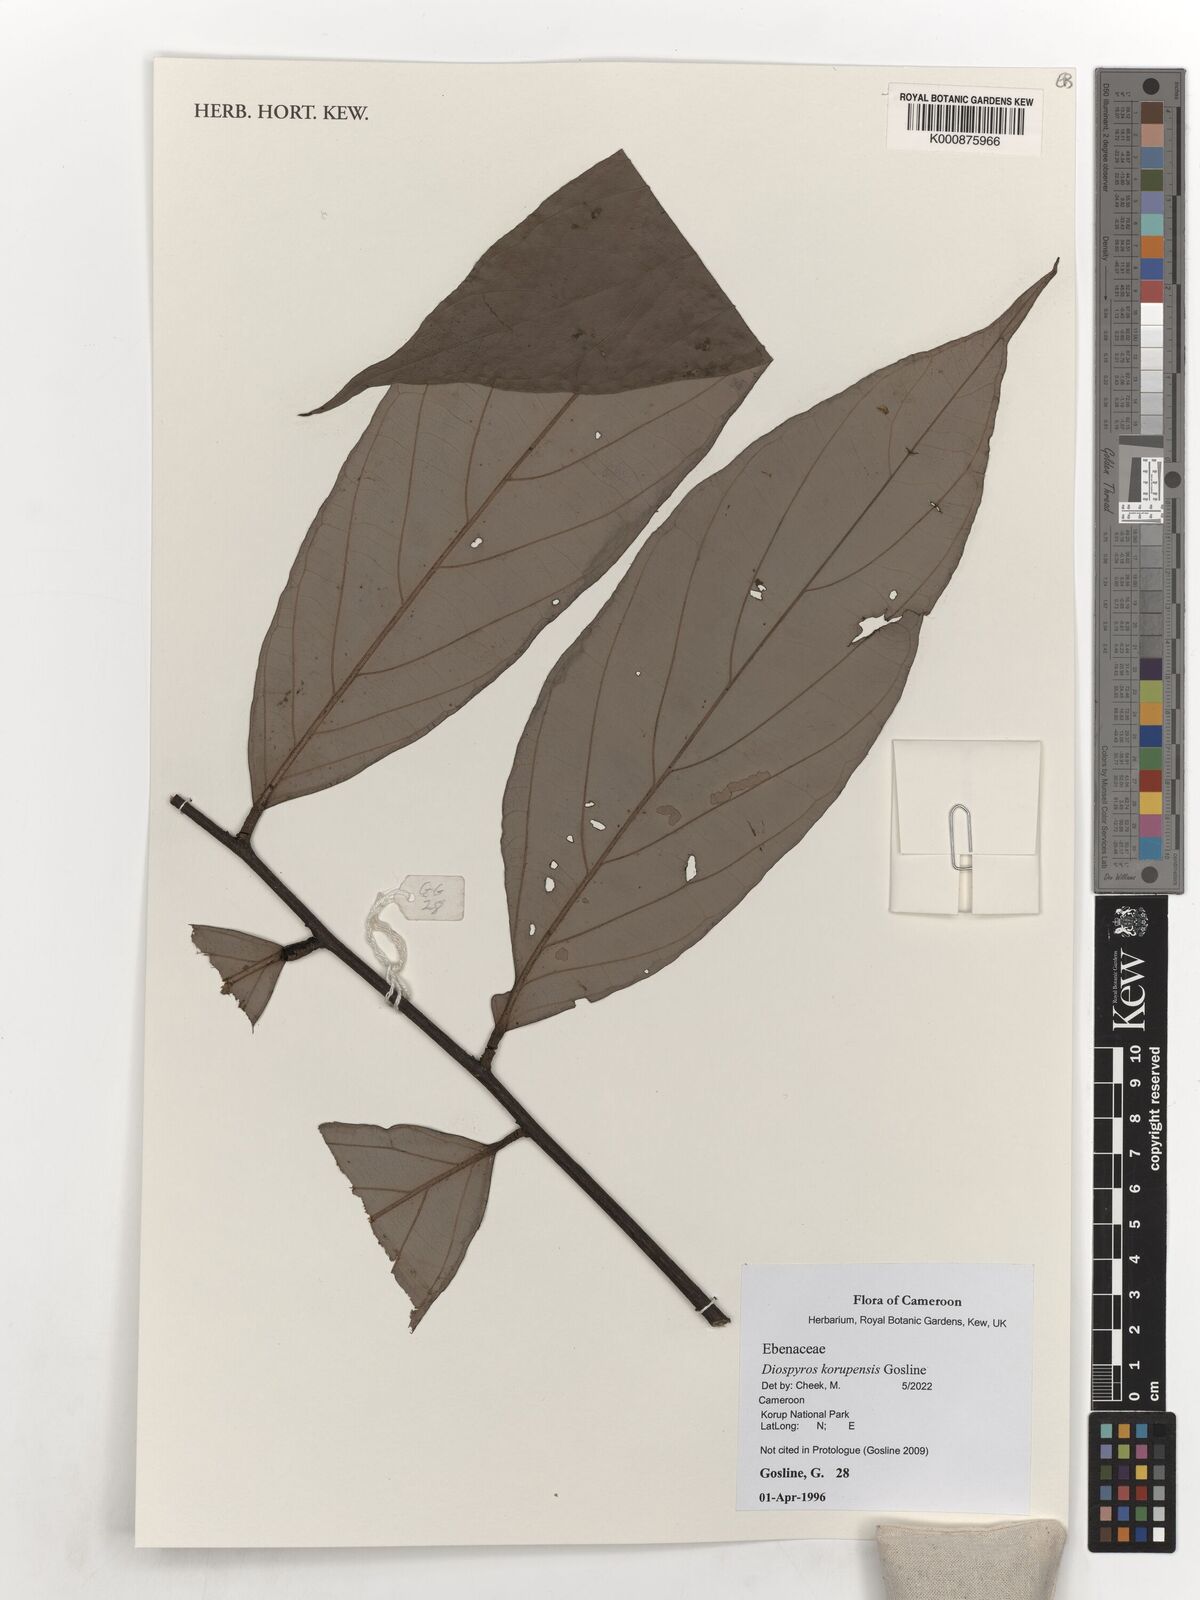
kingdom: Plantae
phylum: Tracheophyta
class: Magnoliopsida
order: Ericales
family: Ebenaceae
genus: Diospyros
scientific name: Diospyros korupensis
